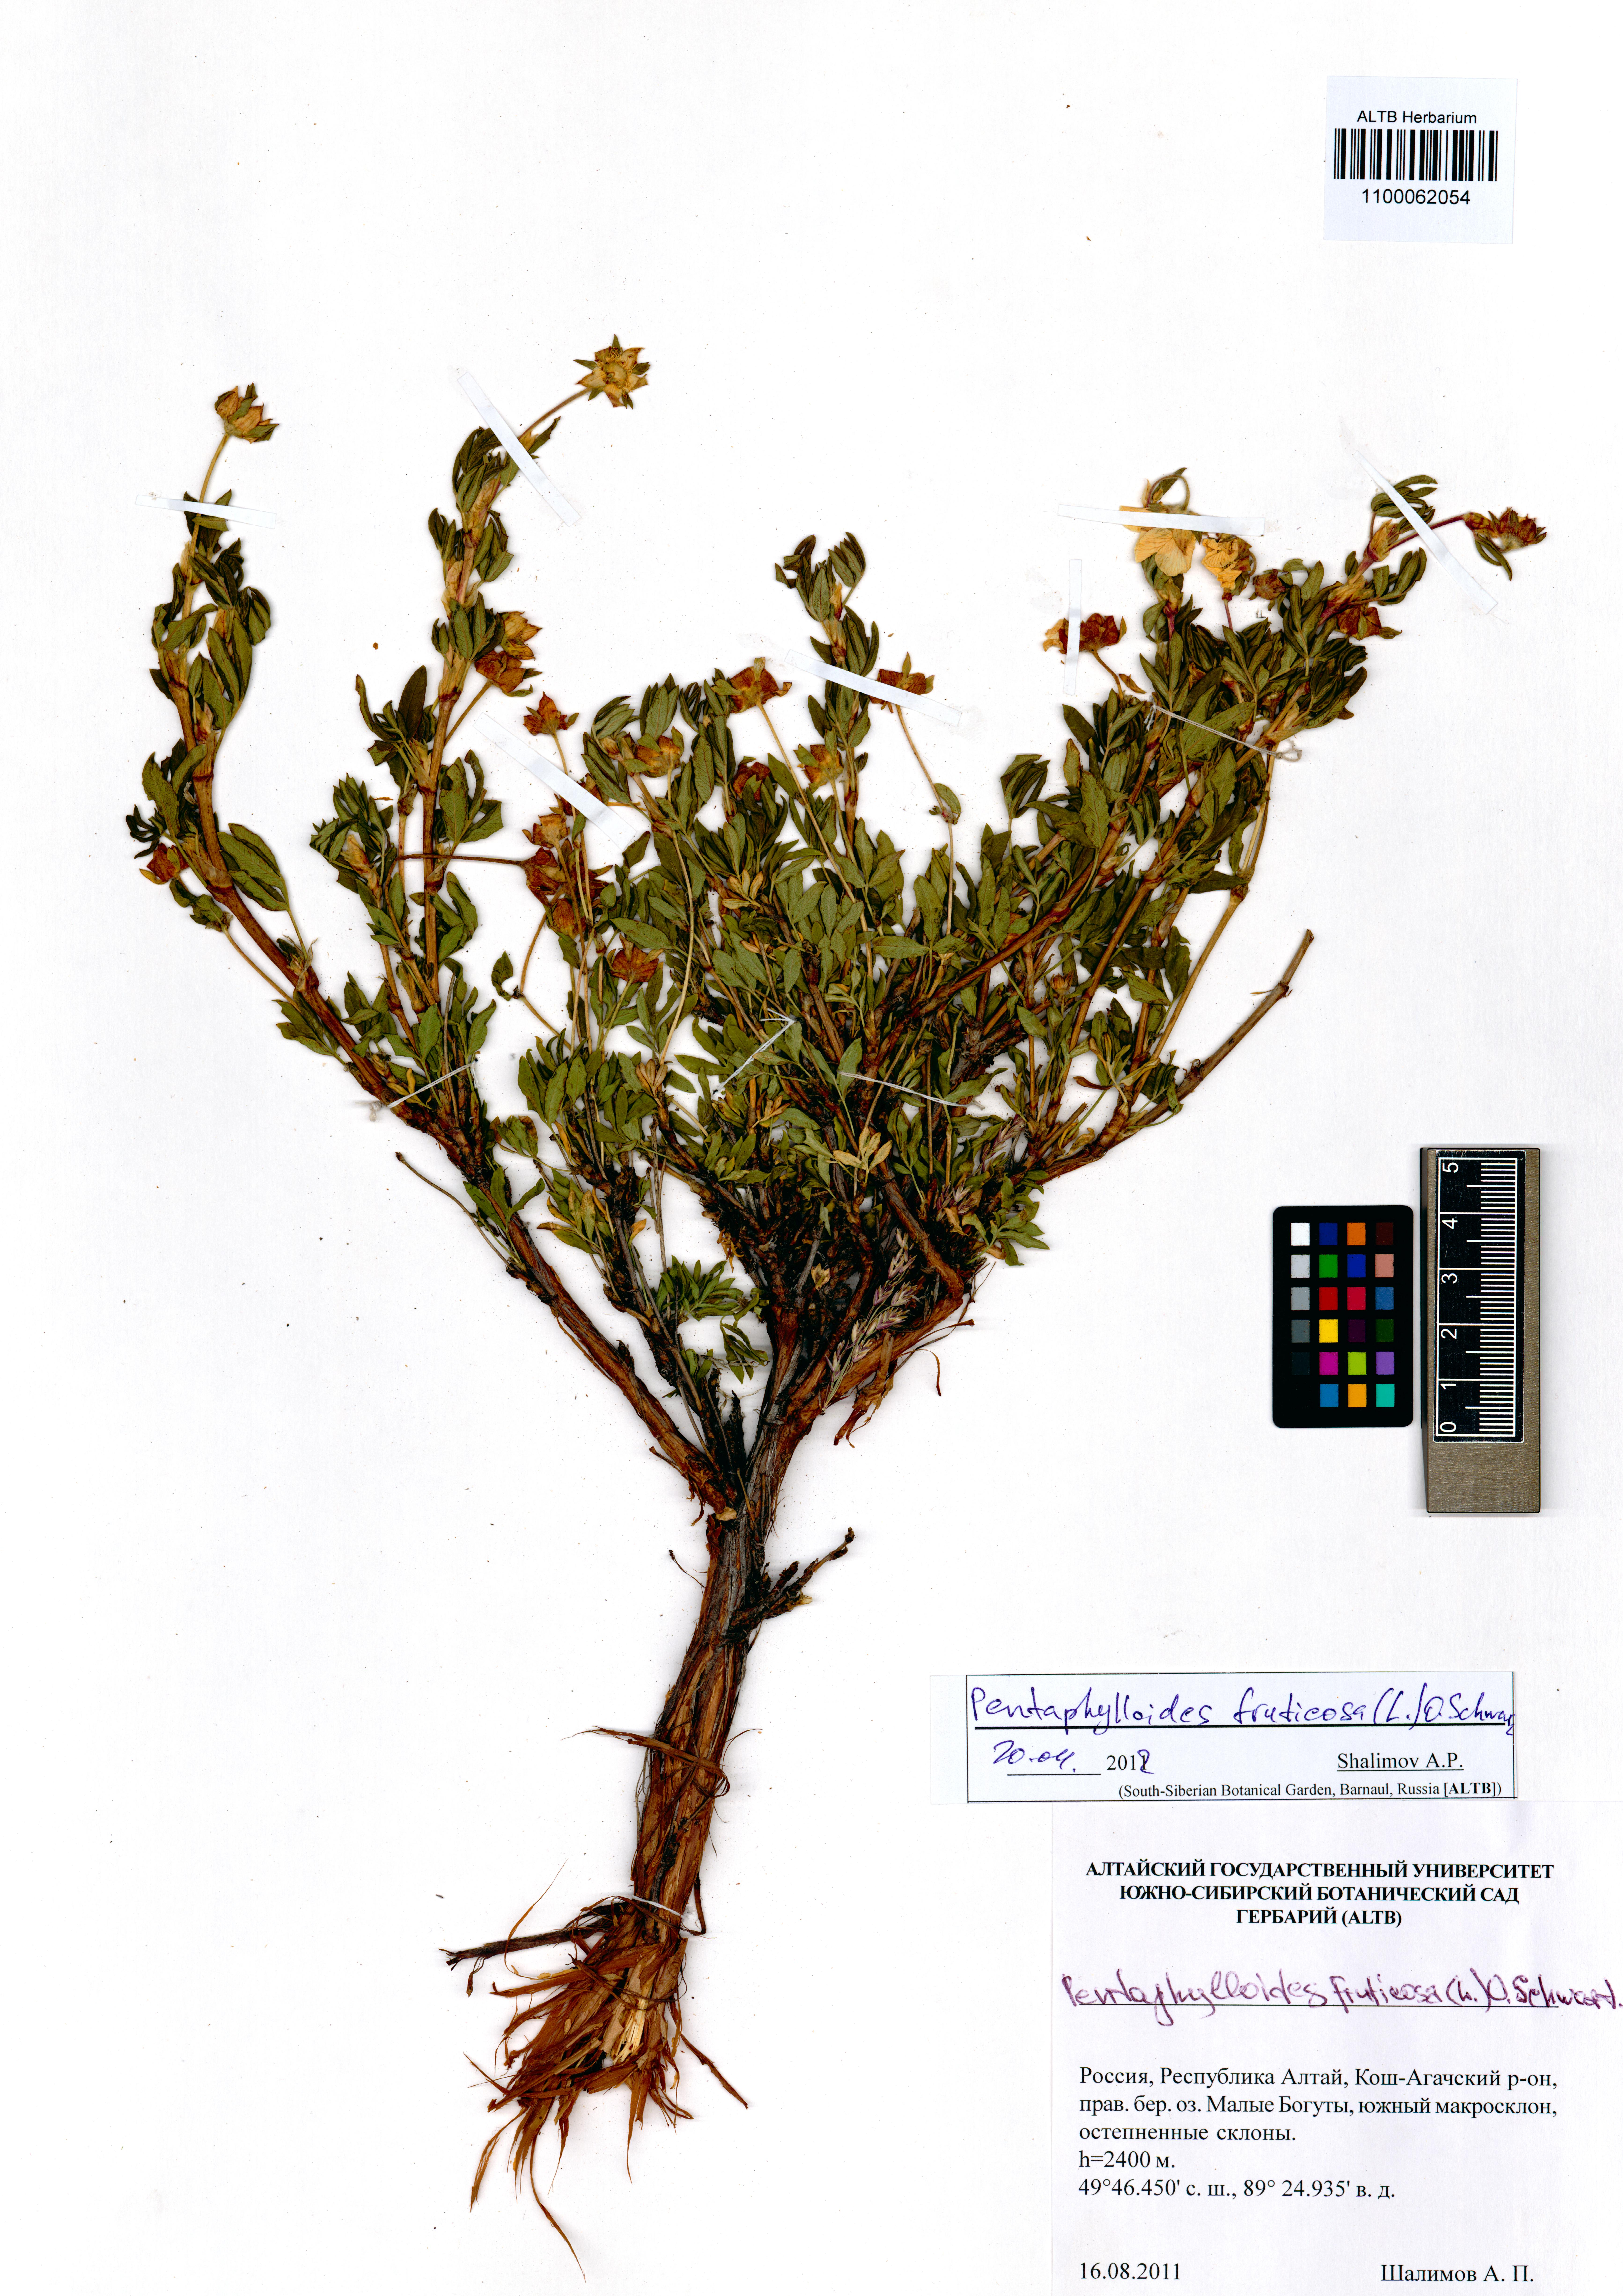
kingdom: Plantae
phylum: Tracheophyta
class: Magnoliopsida
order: Rosales
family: Rosaceae
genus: Dasiphora
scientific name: Dasiphora fruticosa
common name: Shrubby cinquefoil
